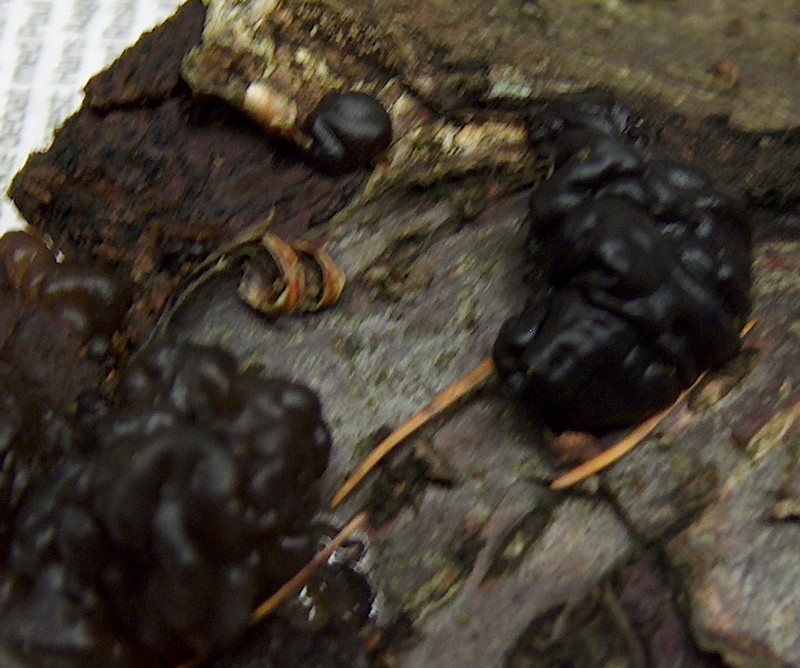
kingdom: Fungi
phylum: Basidiomycota
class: Agaricomycetes
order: Auriculariales
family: Auriculariaceae
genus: Exidia
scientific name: Exidia nigricans
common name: almindelig bævretop
